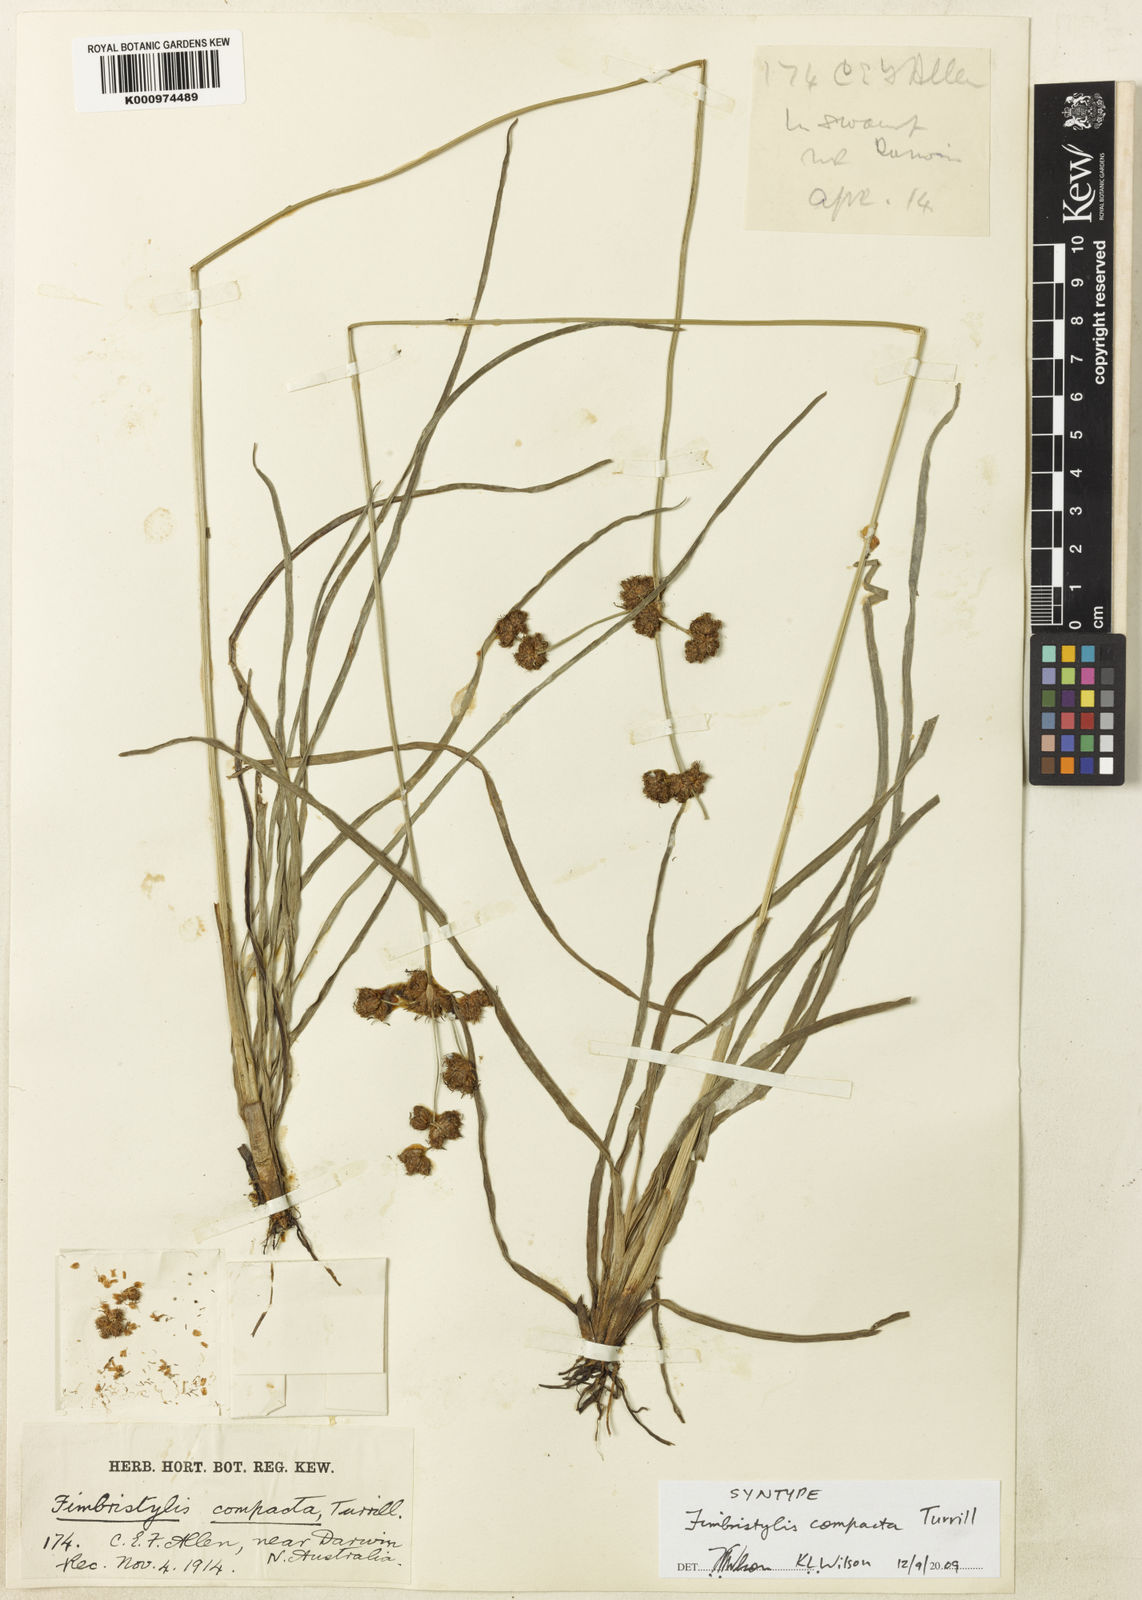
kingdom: Plantae
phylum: Tracheophyta
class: Liliopsida
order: Poales
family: Cyperaceae
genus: Fimbristylis
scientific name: Fimbristylis compacta
